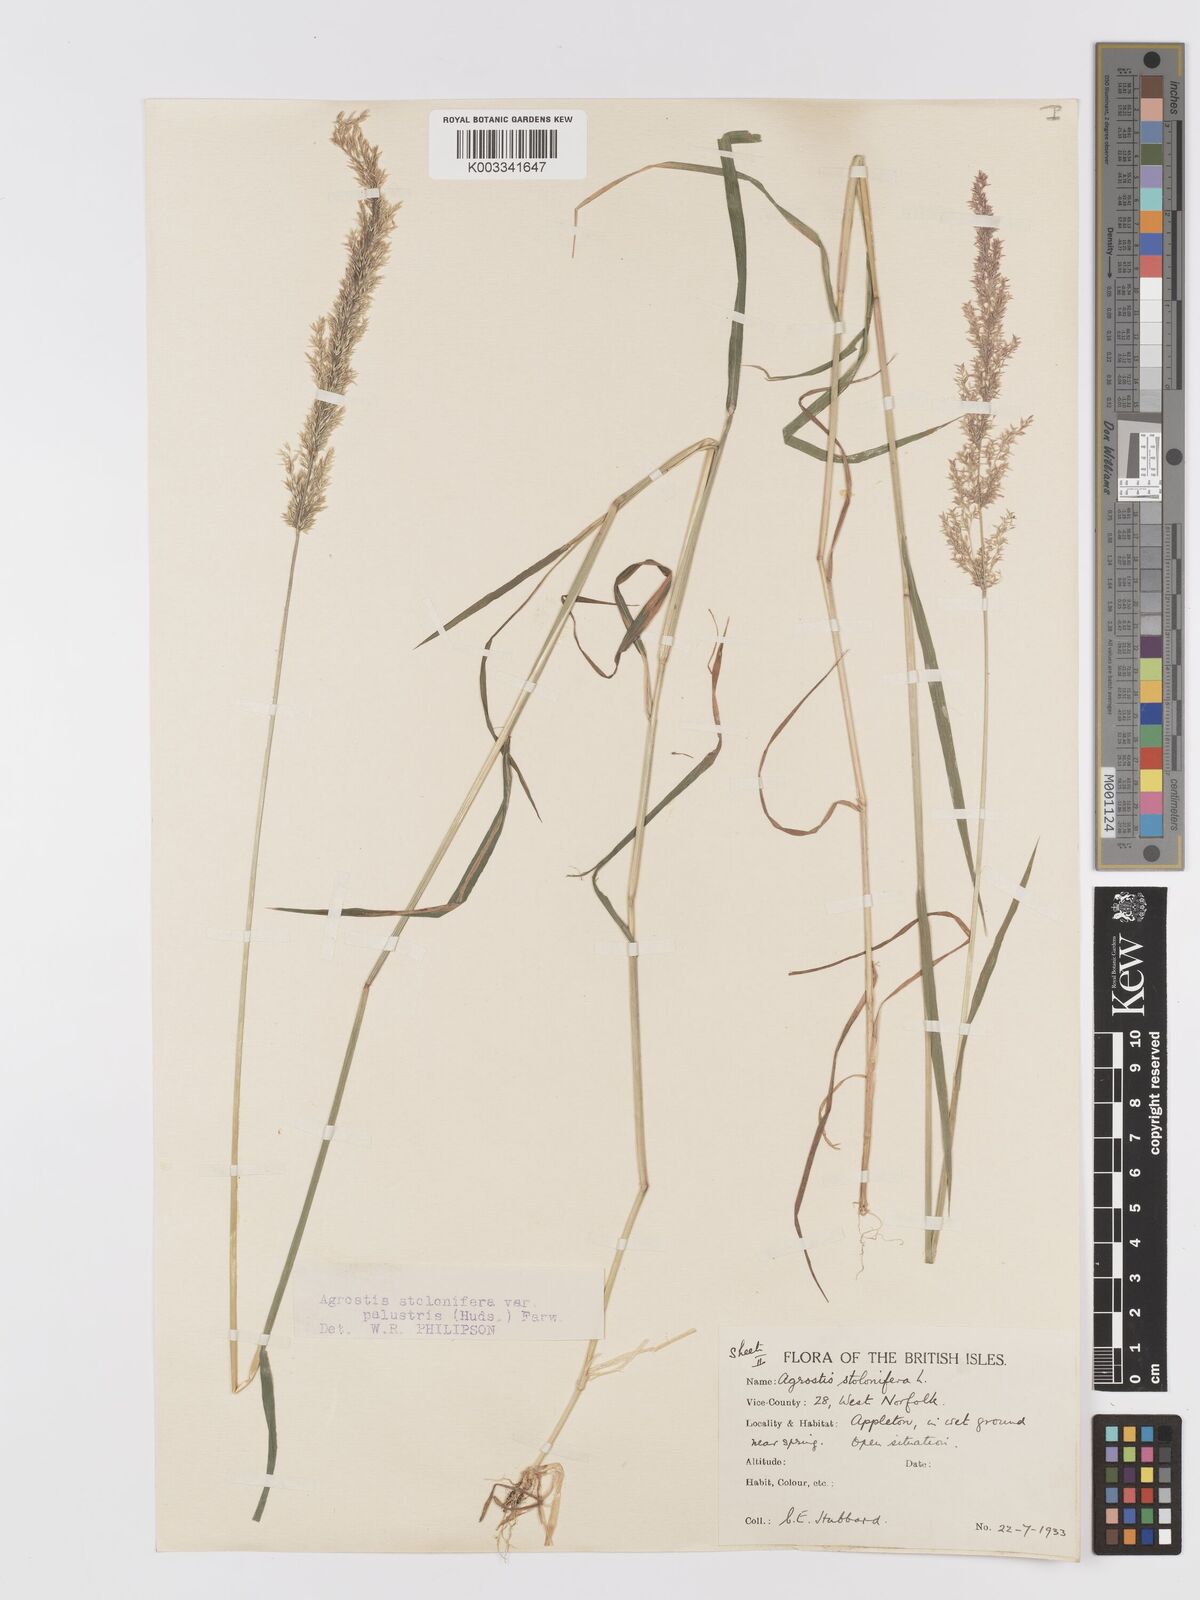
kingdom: Plantae
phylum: Tracheophyta
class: Liliopsida
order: Poales
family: Poaceae
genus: Agrostis
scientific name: Agrostis stolonifera
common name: Creeping bentgrass
